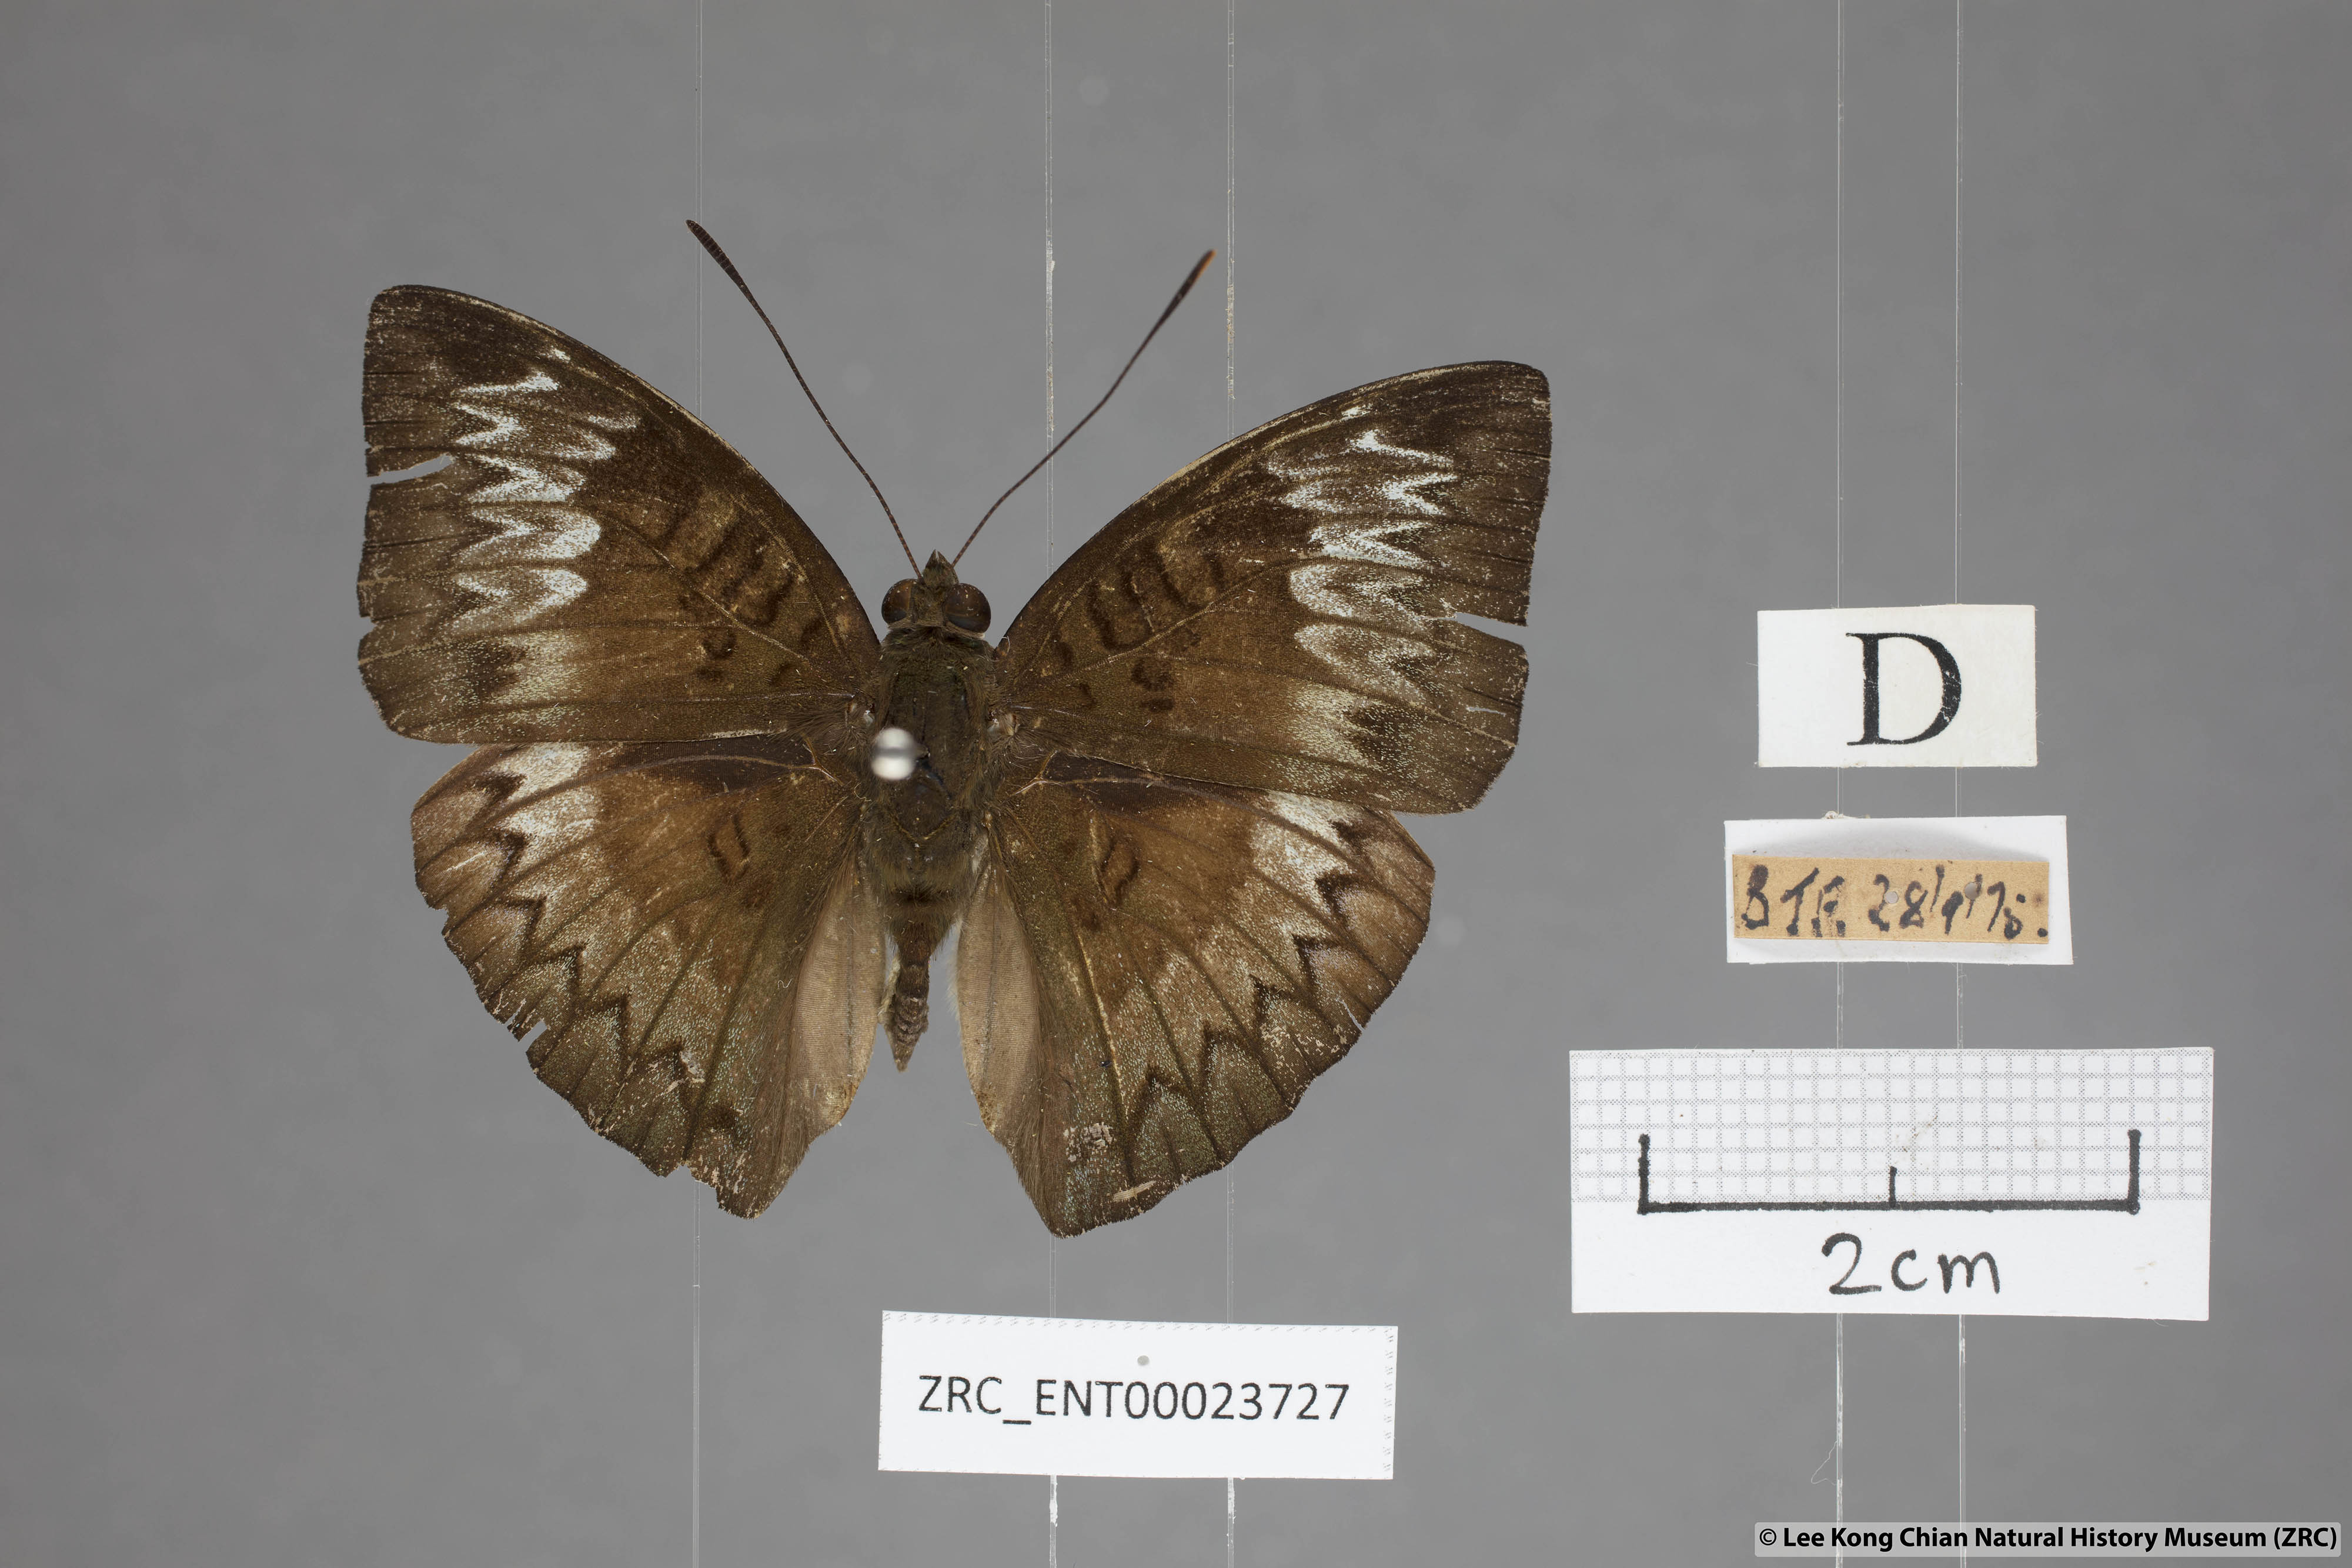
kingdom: Animalia
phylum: Arthropoda
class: Insecta
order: Lepidoptera
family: Nymphalidae
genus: Euthalia
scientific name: Euthalia monina
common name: Powdered baron
